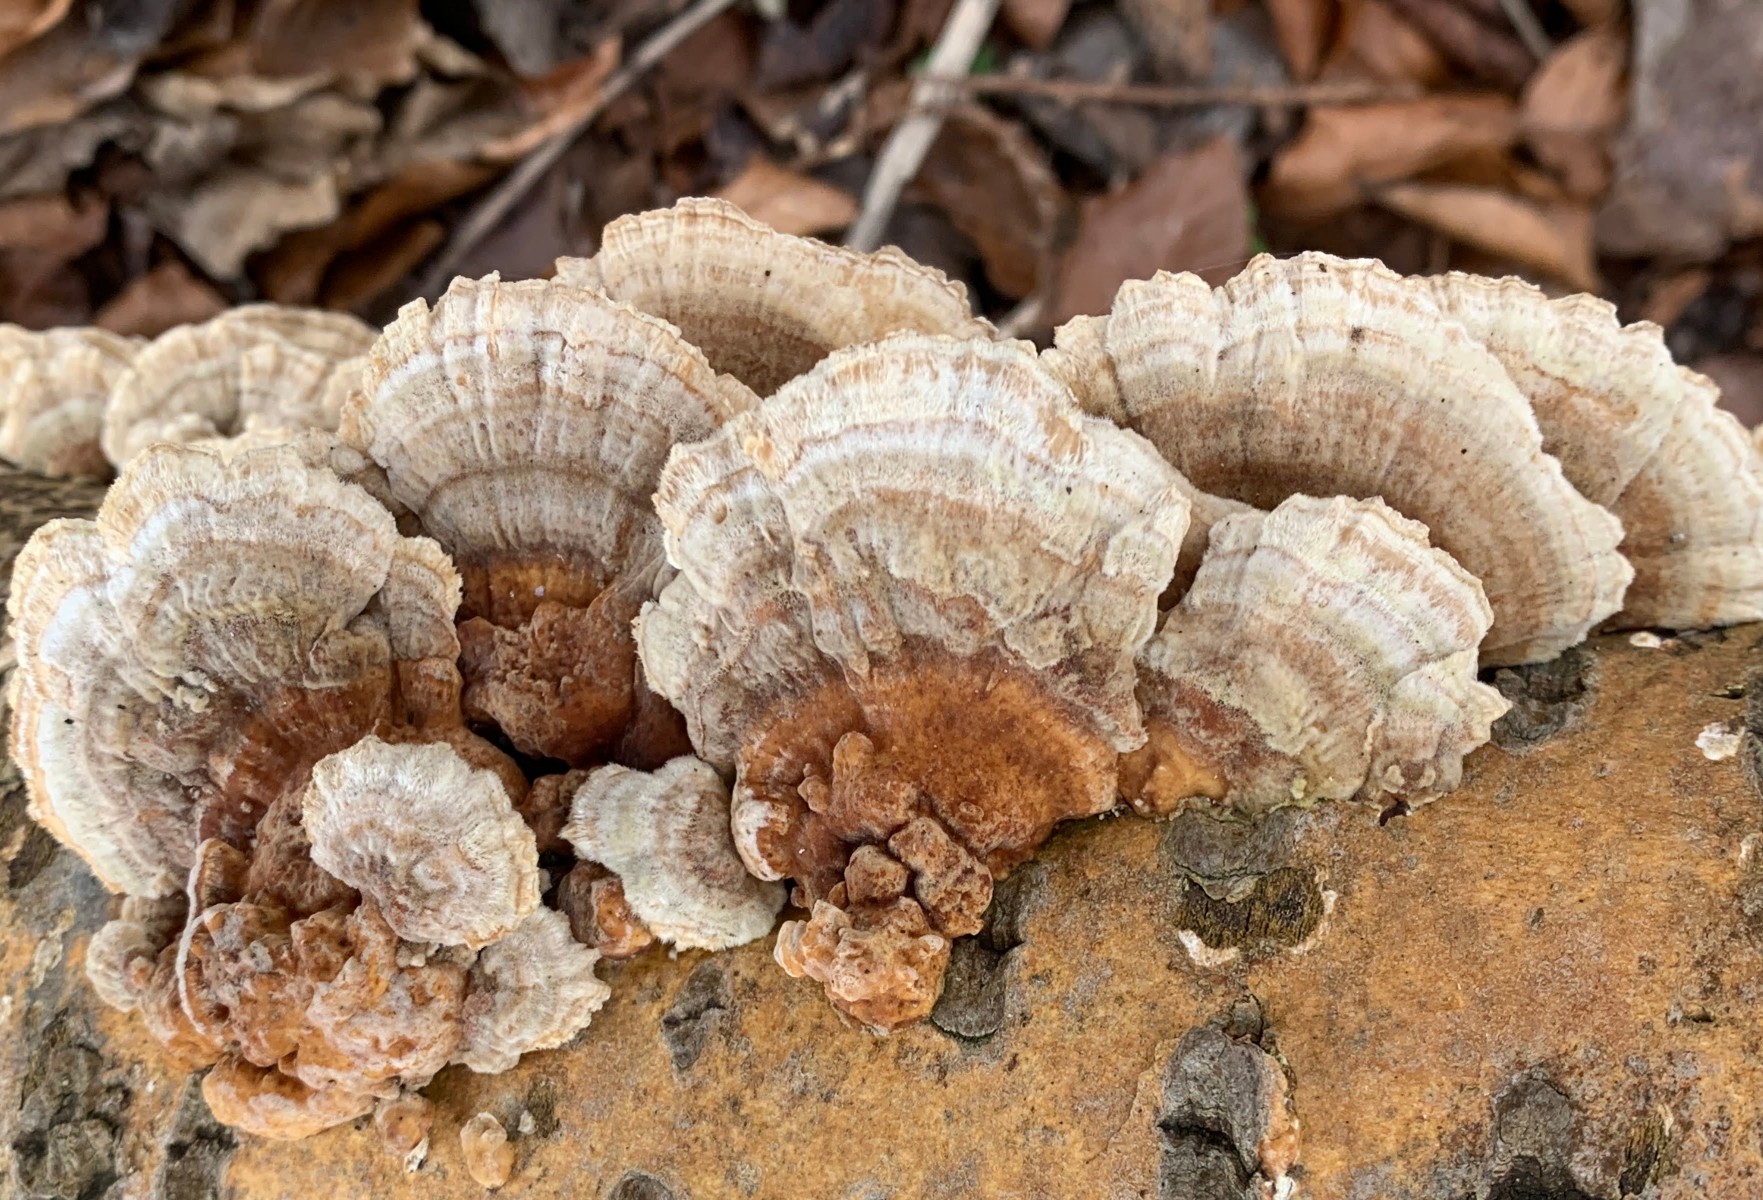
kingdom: Fungi
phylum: Basidiomycota
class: Agaricomycetes
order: Polyporales
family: Polyporaceae
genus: Trametes
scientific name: Trametes ochracea
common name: bæltet læderporesvamp
